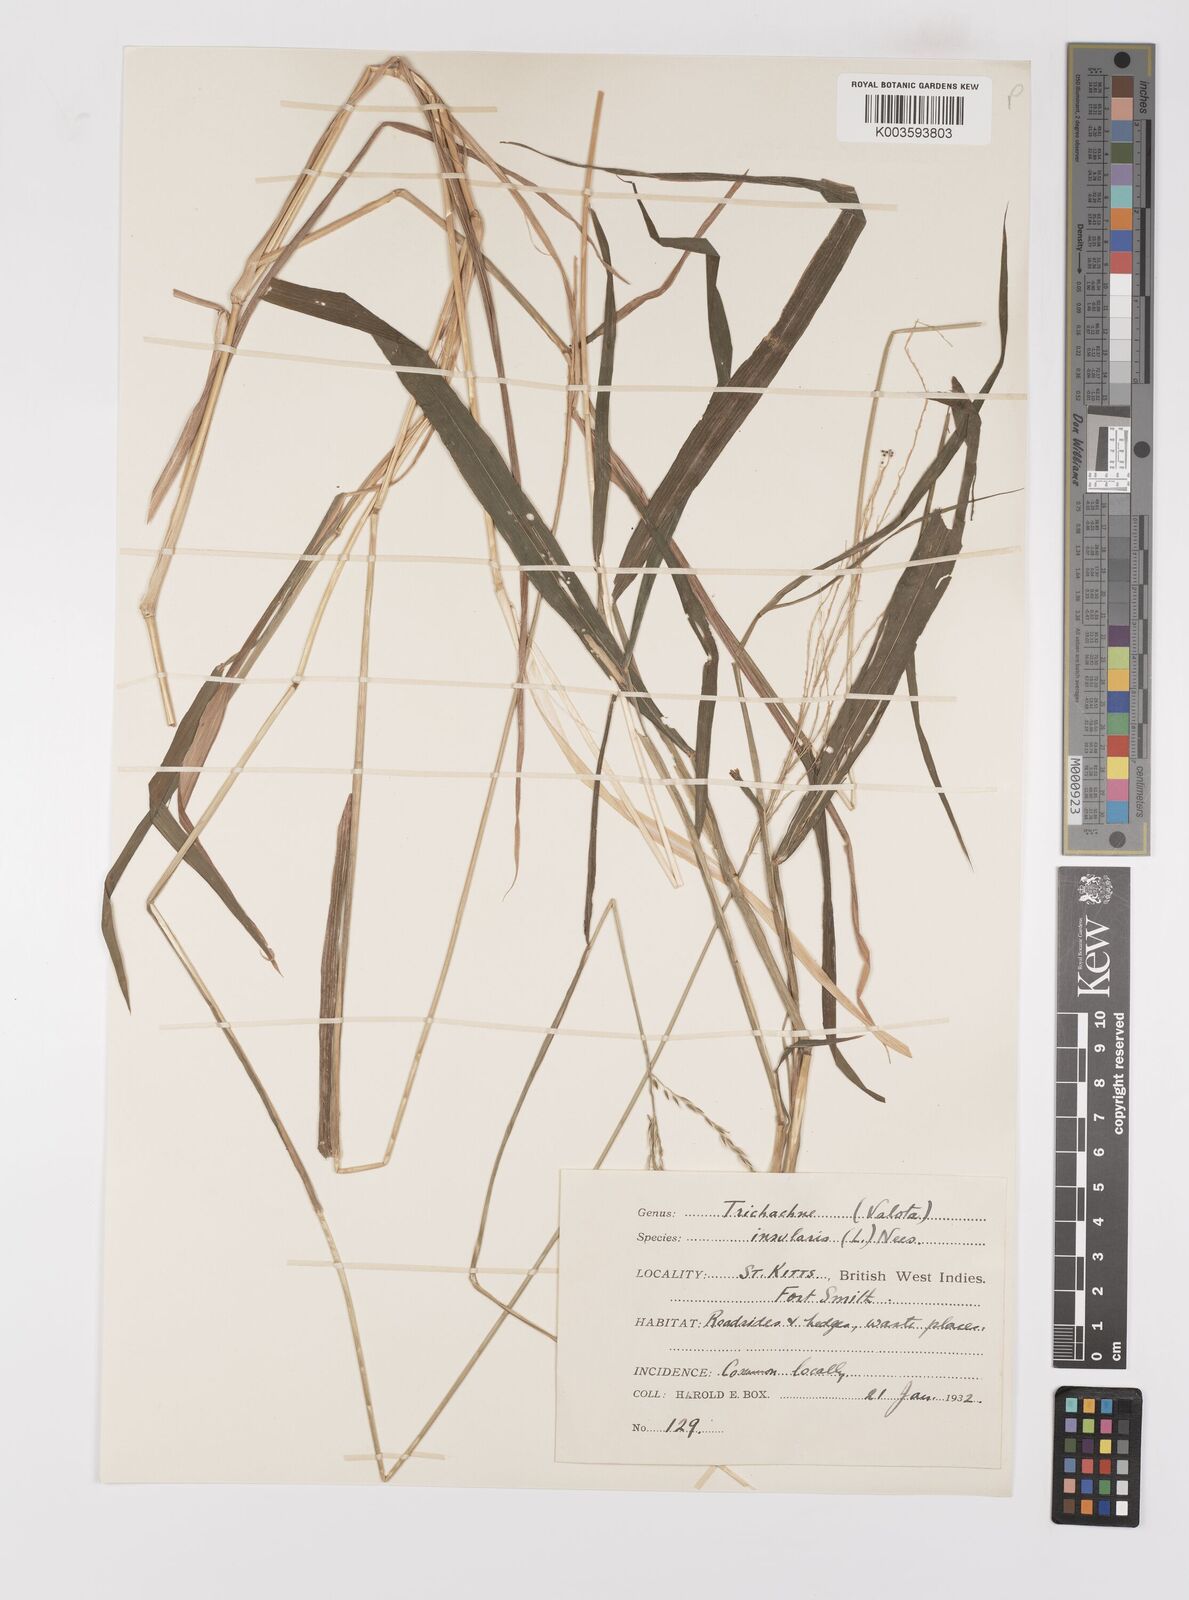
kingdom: Plantae
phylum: Tracheophyta
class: Liliopsida
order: Poales
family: Poaceae
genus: Digitaria
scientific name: Digitaria insularis
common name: Sourgrass
